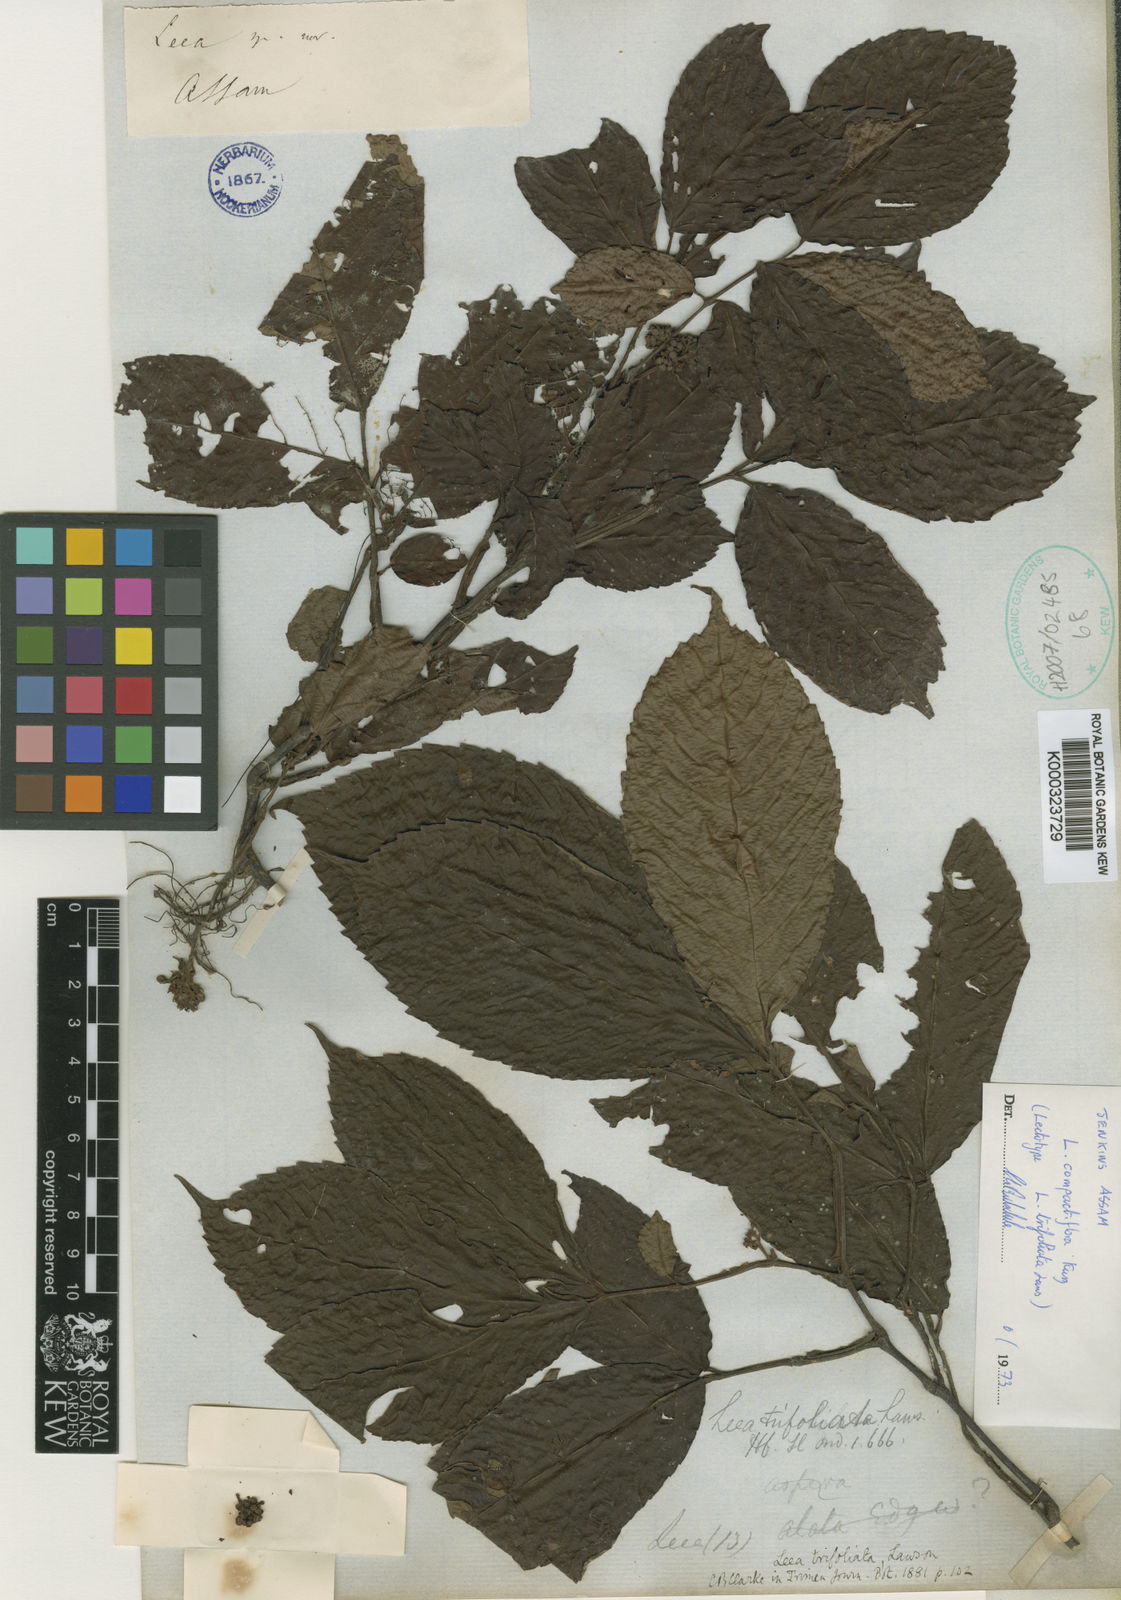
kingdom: Plantae
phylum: Tracheophyta
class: Magnoliopsida
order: Vitales
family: Vitaceae
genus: Leea
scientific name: Leea compactiflora
